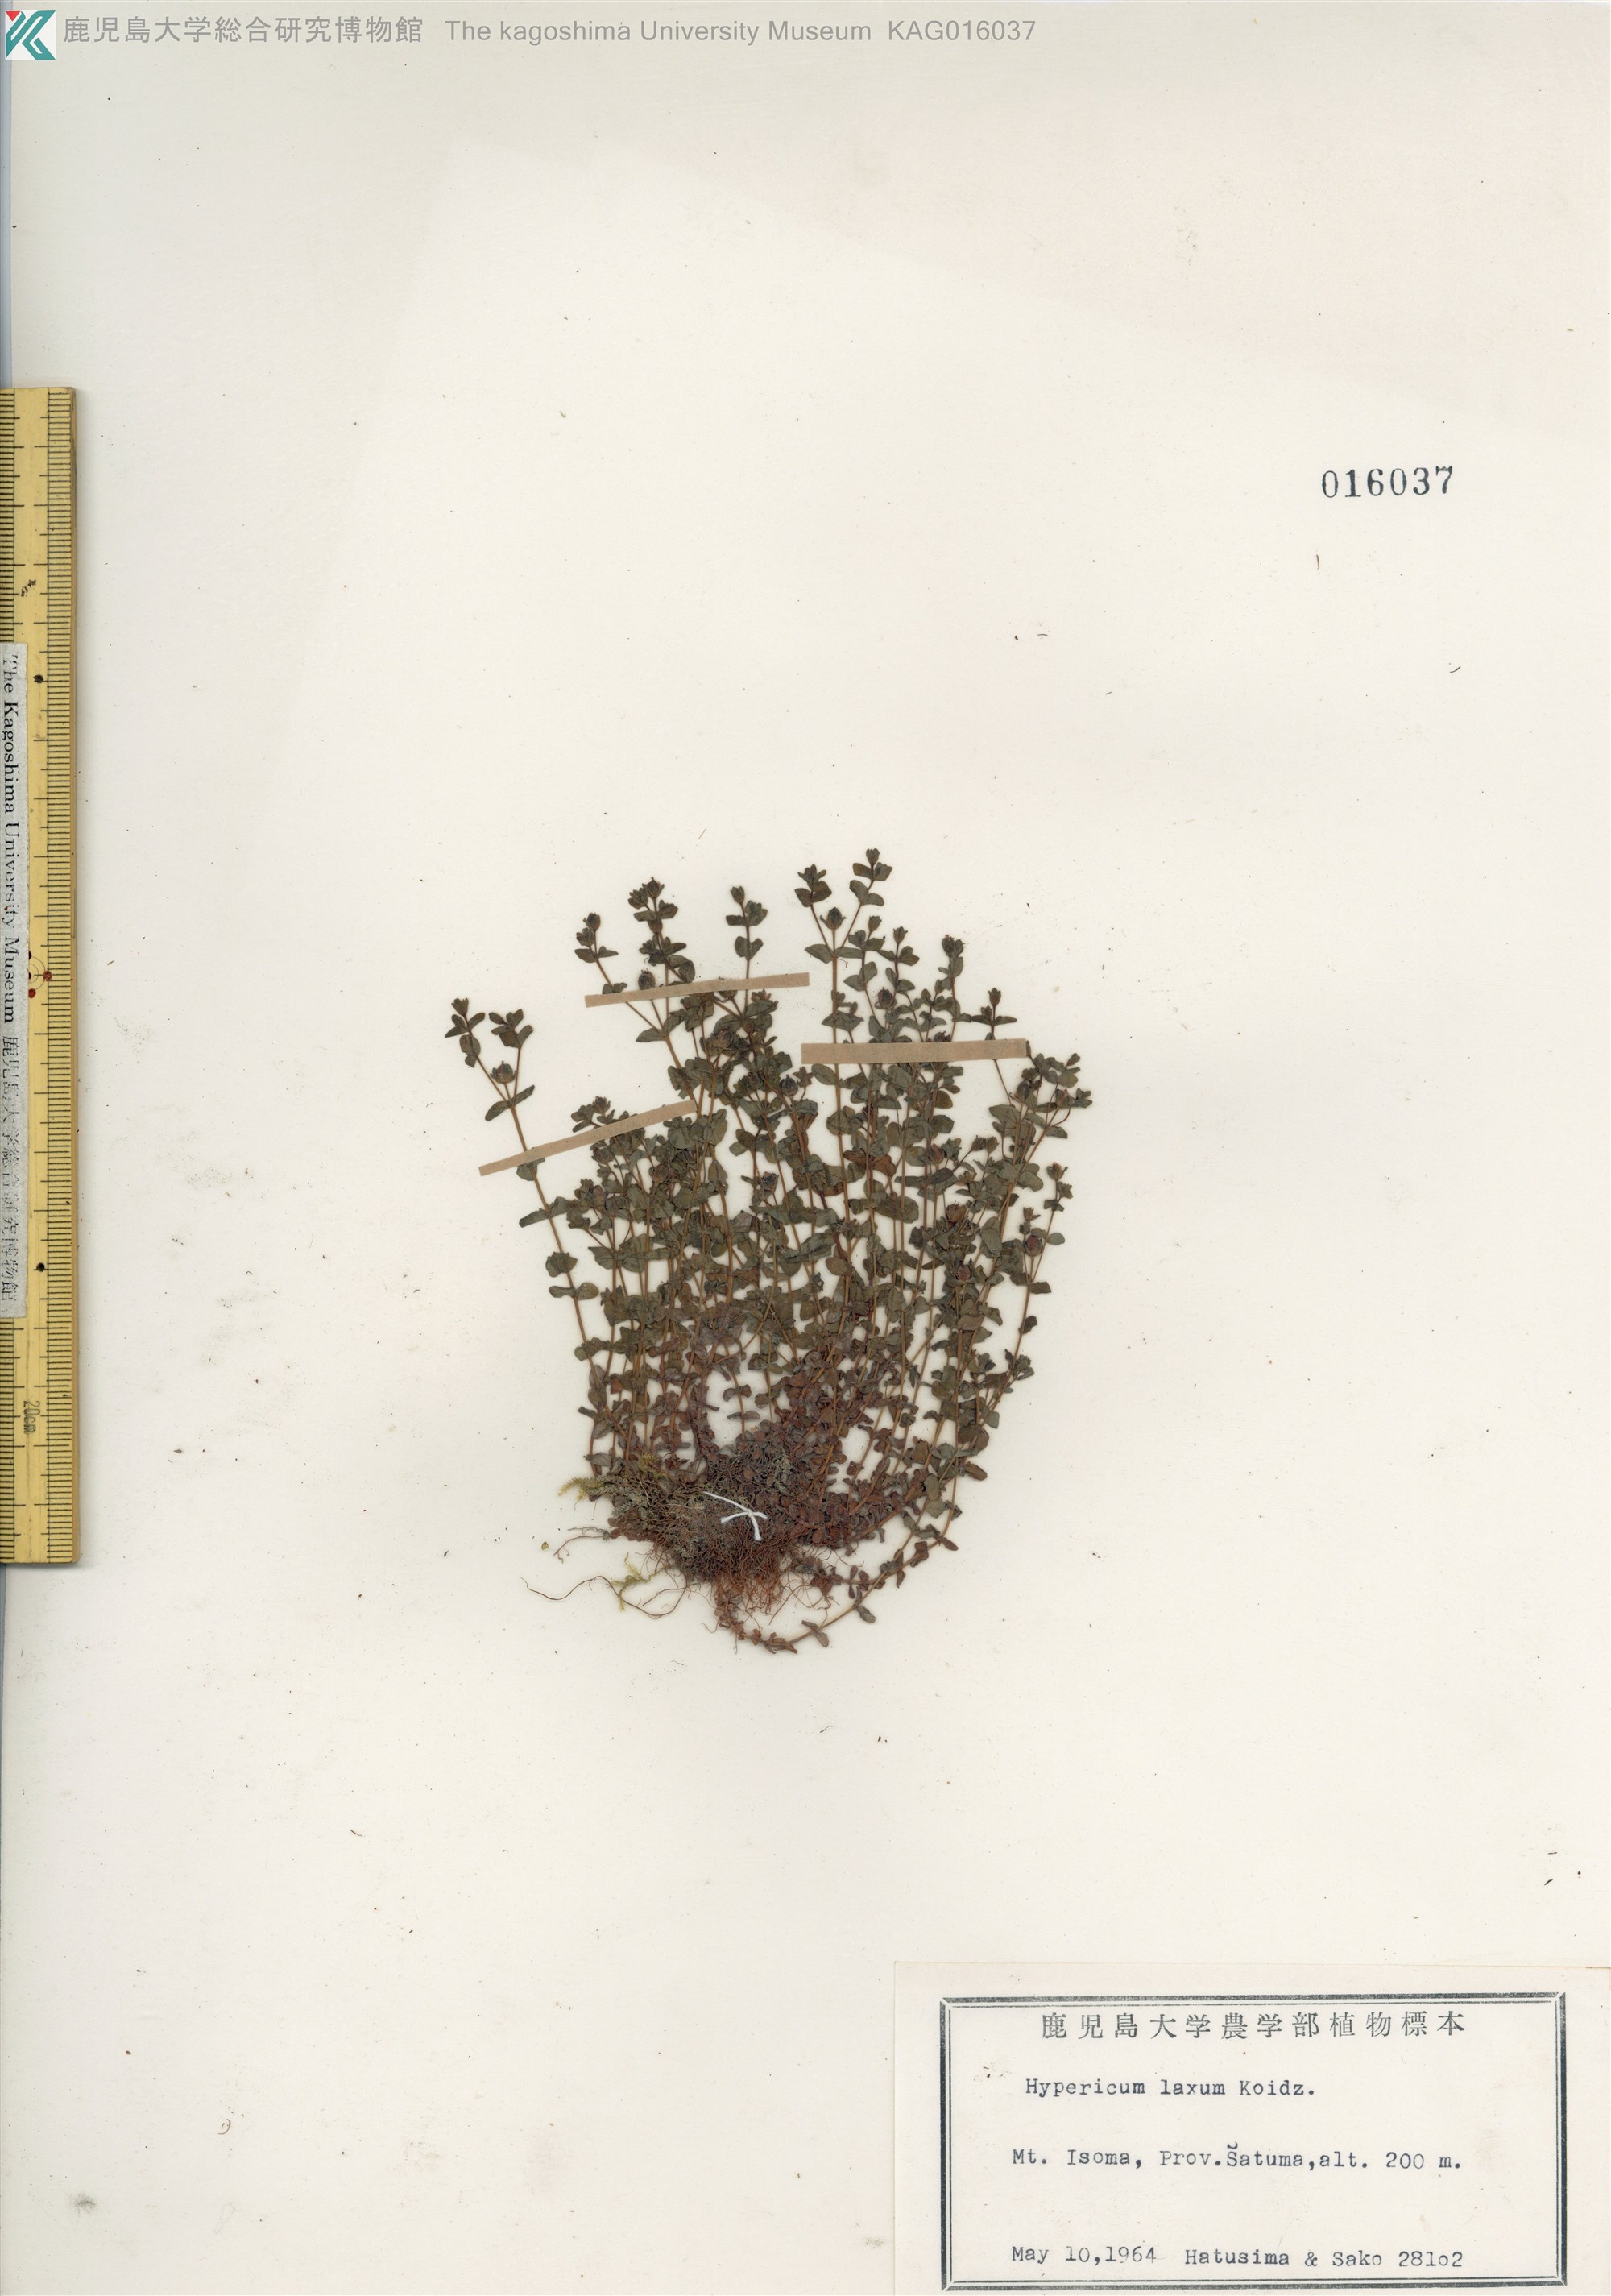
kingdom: Plantae
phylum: Tracheophyta
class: Magnoliopsida
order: Malpighiales
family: Hypericaceae
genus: Hypericum
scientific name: Hypericum japonicum
